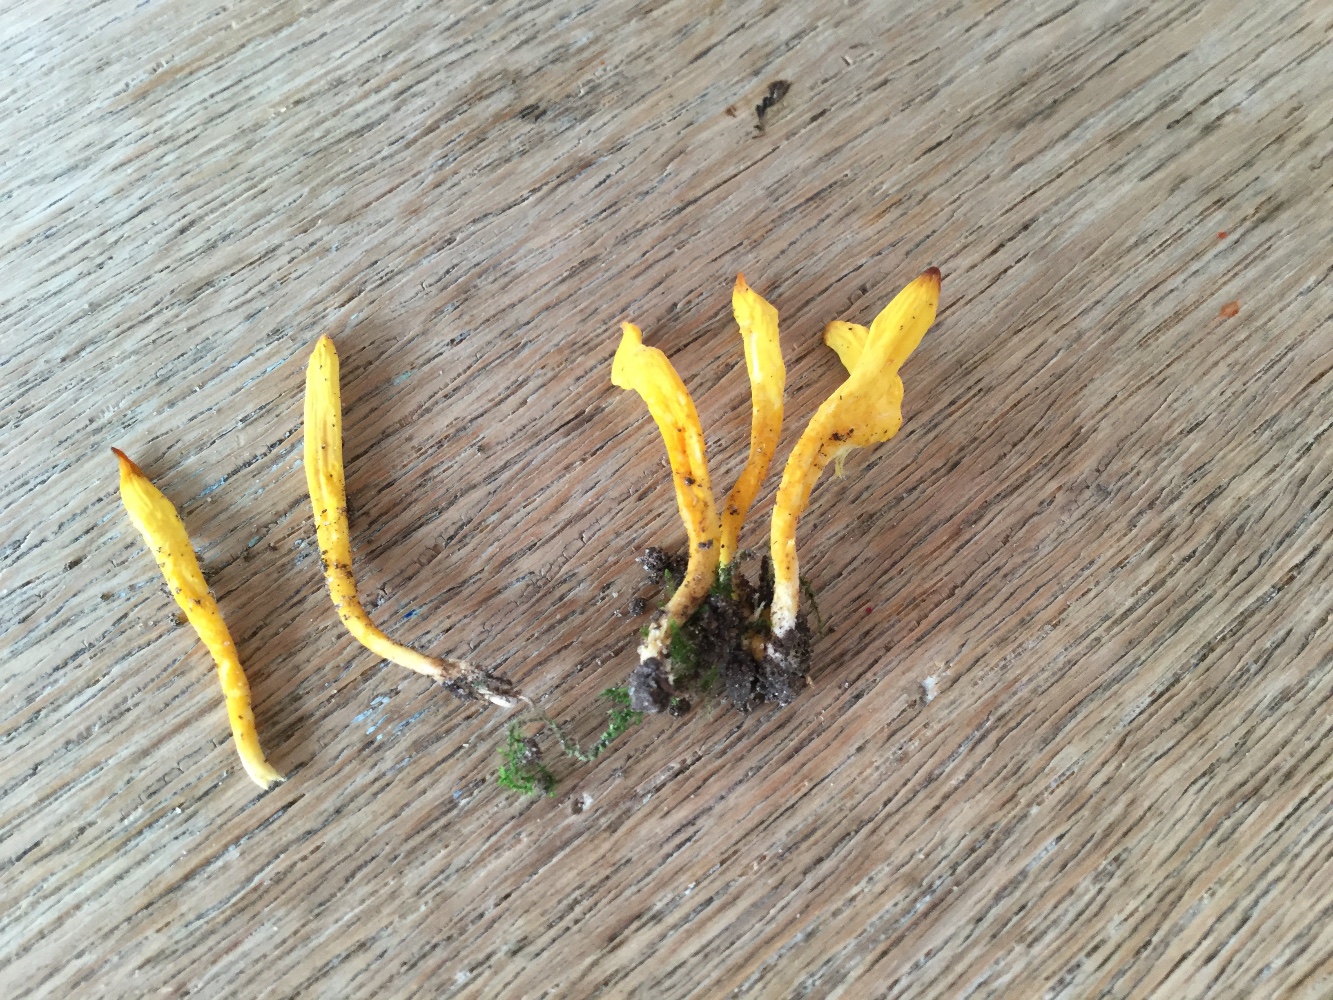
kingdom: Fungi
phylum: Basidiomycota
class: Agaricomycetes
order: Agaricales
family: Clavariaceae
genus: Clavulinopsis
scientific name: Clavulinopsis laeticolor
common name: flamme-køllesvamp
